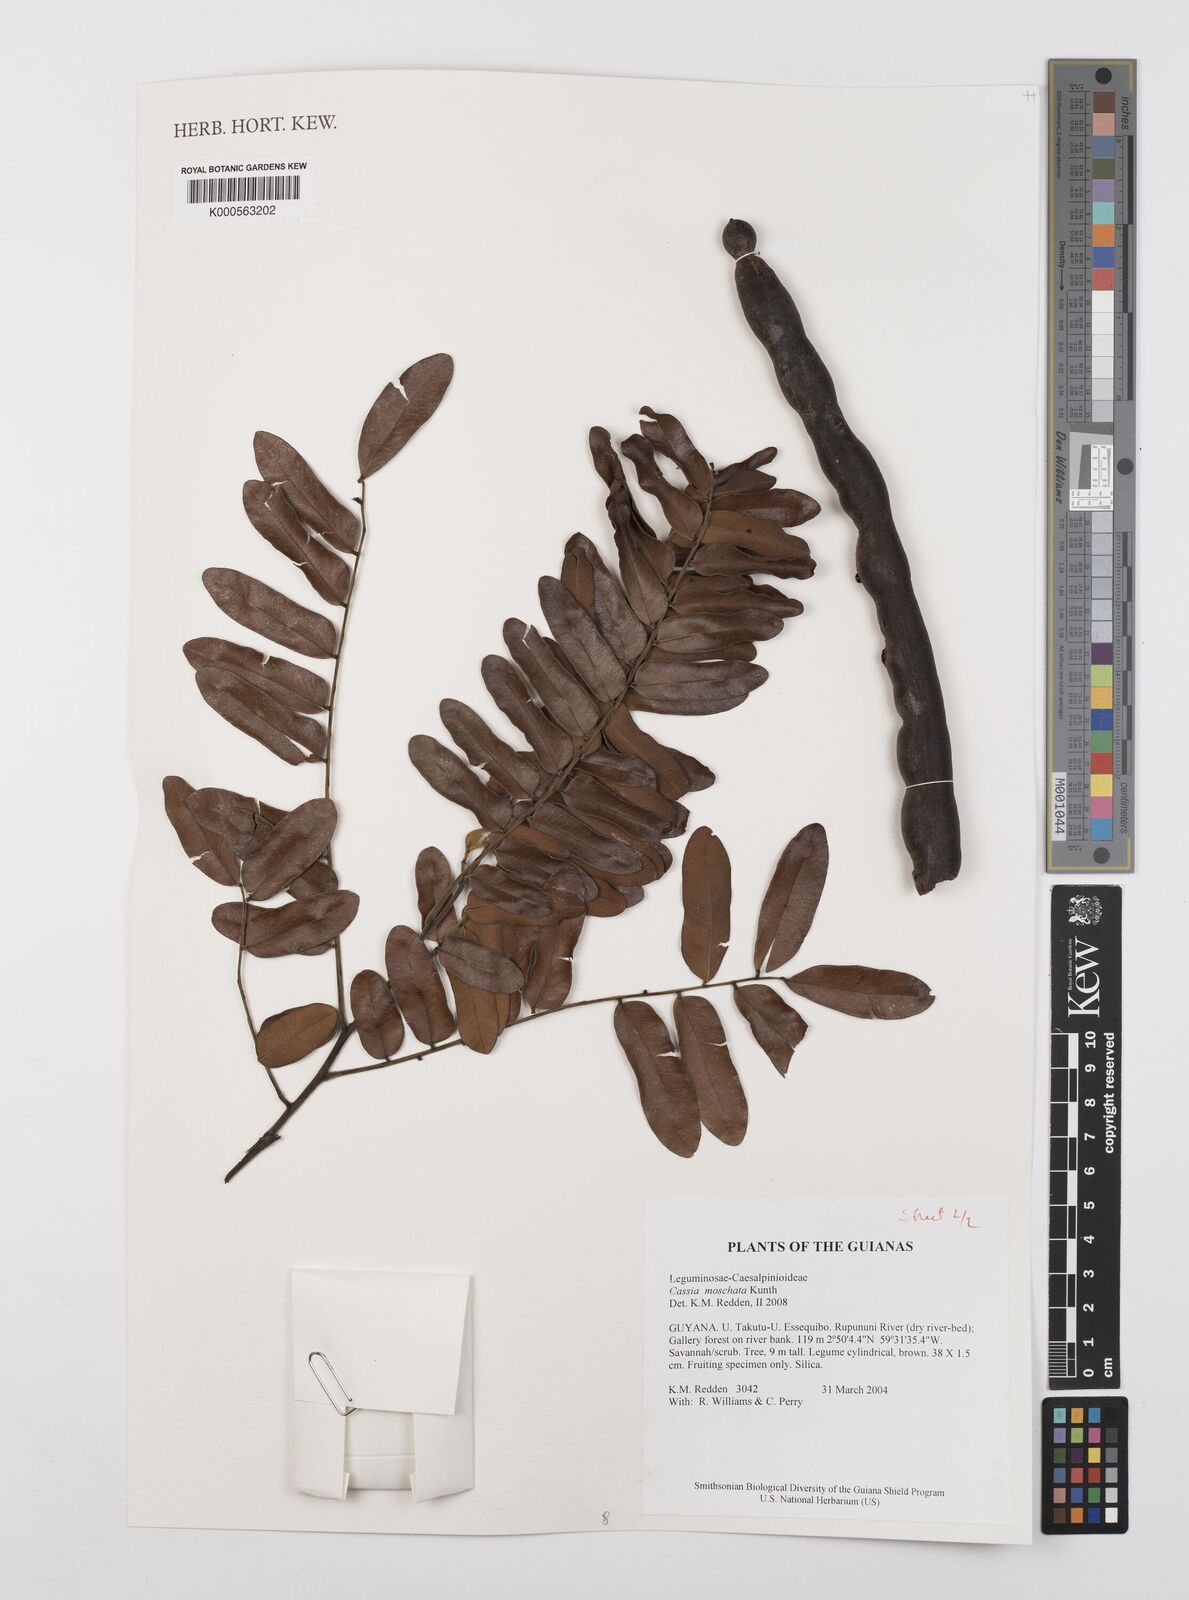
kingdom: Plantae
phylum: Tracheophyta
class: Magnoliopsida
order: Fabales
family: Fabaceae
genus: Cassia
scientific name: Cassia moschata
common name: Bronze shower tree
